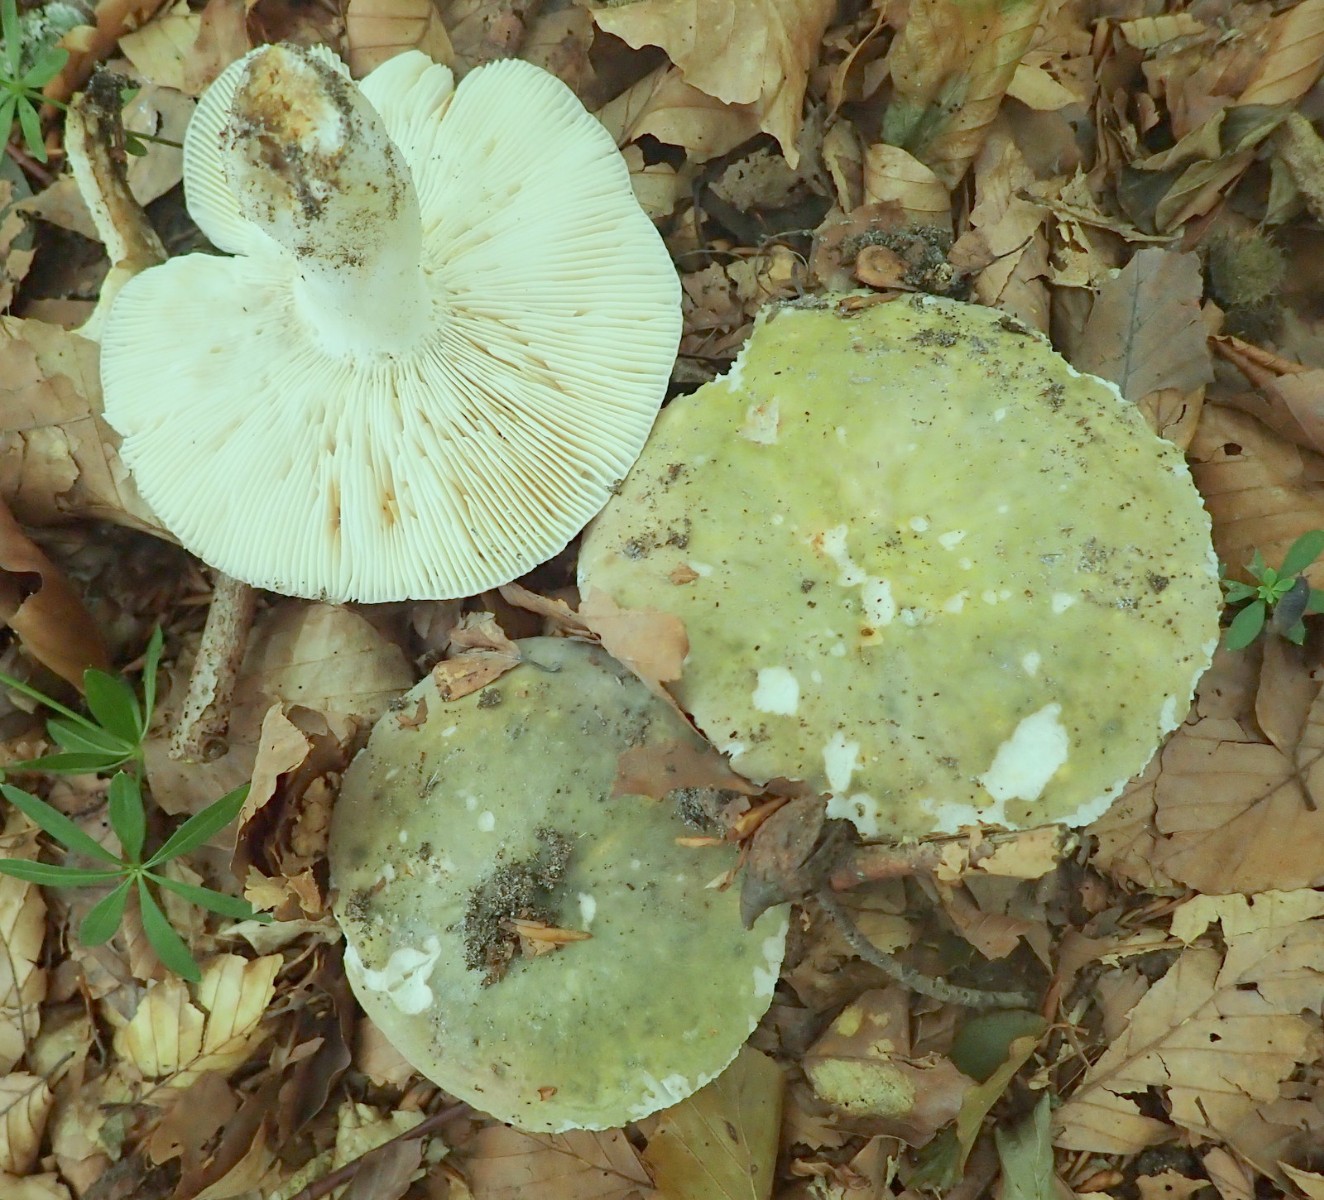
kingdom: Fungi
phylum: Basidiomycota
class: Agaricomycetes
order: Russulales
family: Russulaceae
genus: Russula
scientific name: Russula aeruginea
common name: græsgrøn skørhat
